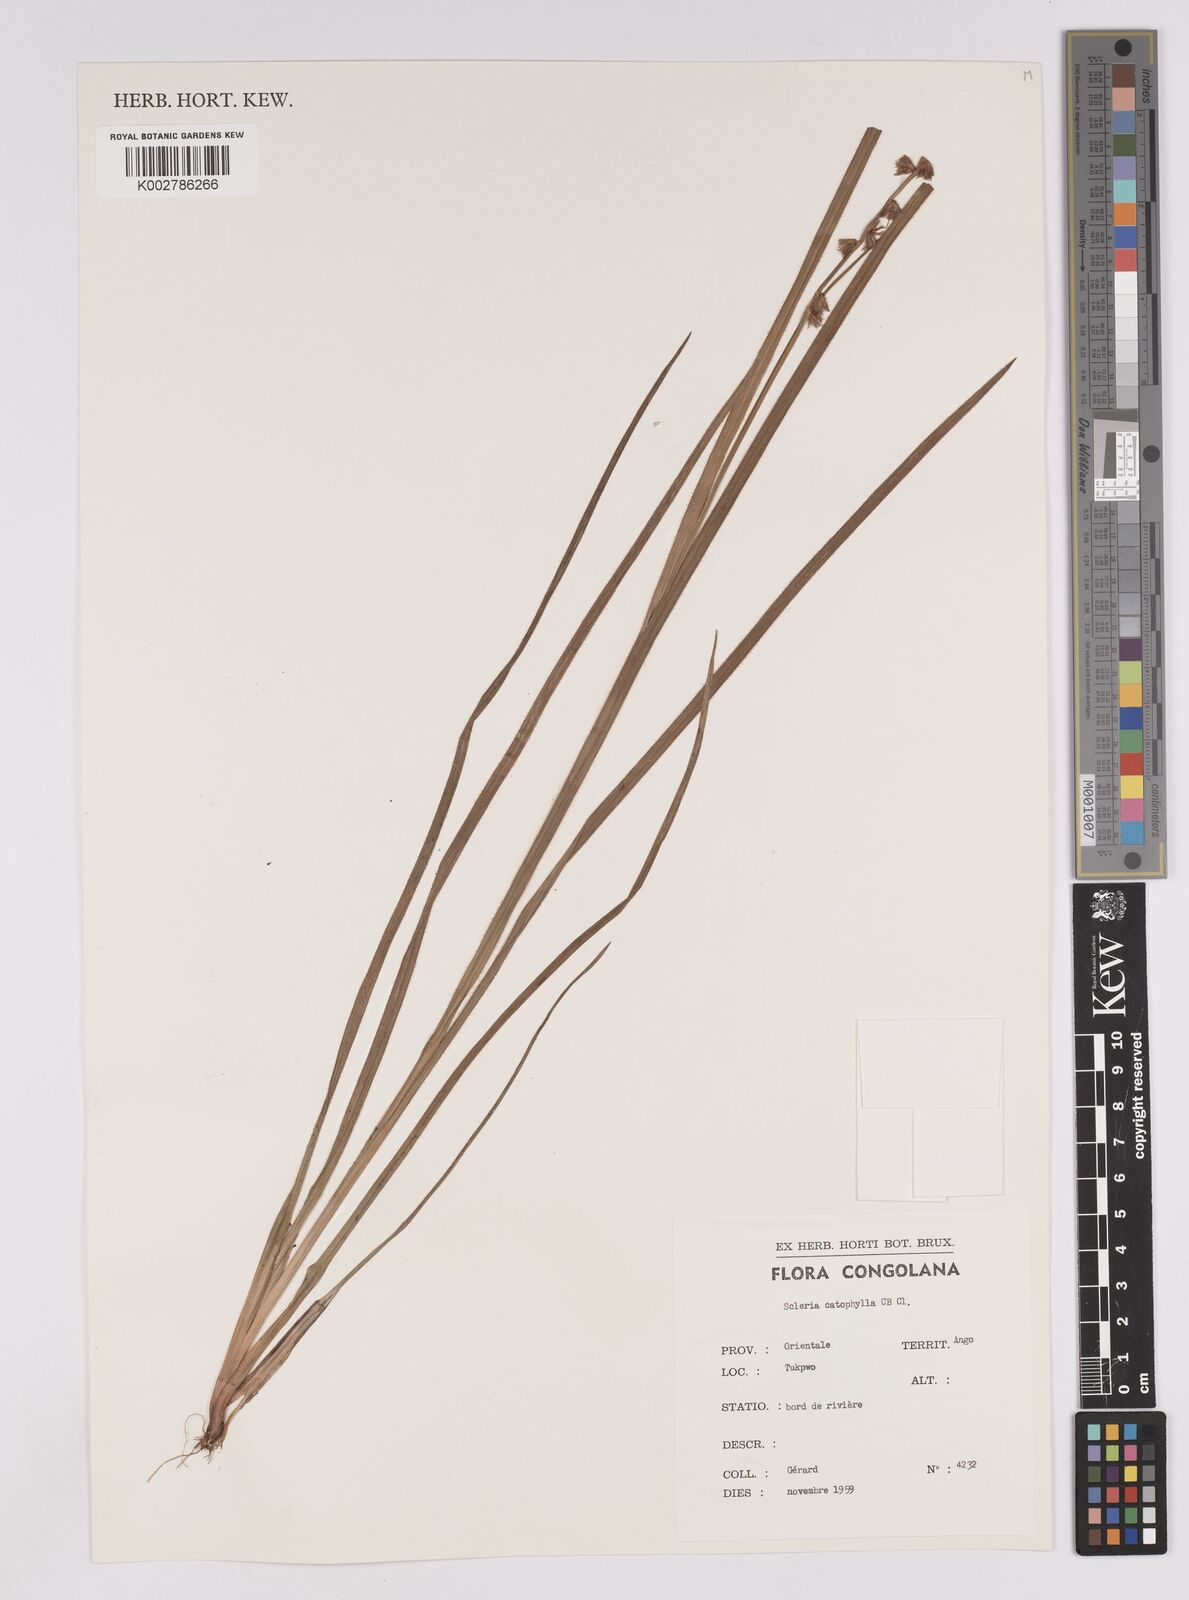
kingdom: Plantae
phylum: Tracheophyta
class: Liliopsida
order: Poales
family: Cyperaceae
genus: Scleria
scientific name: Scleria catophylla
